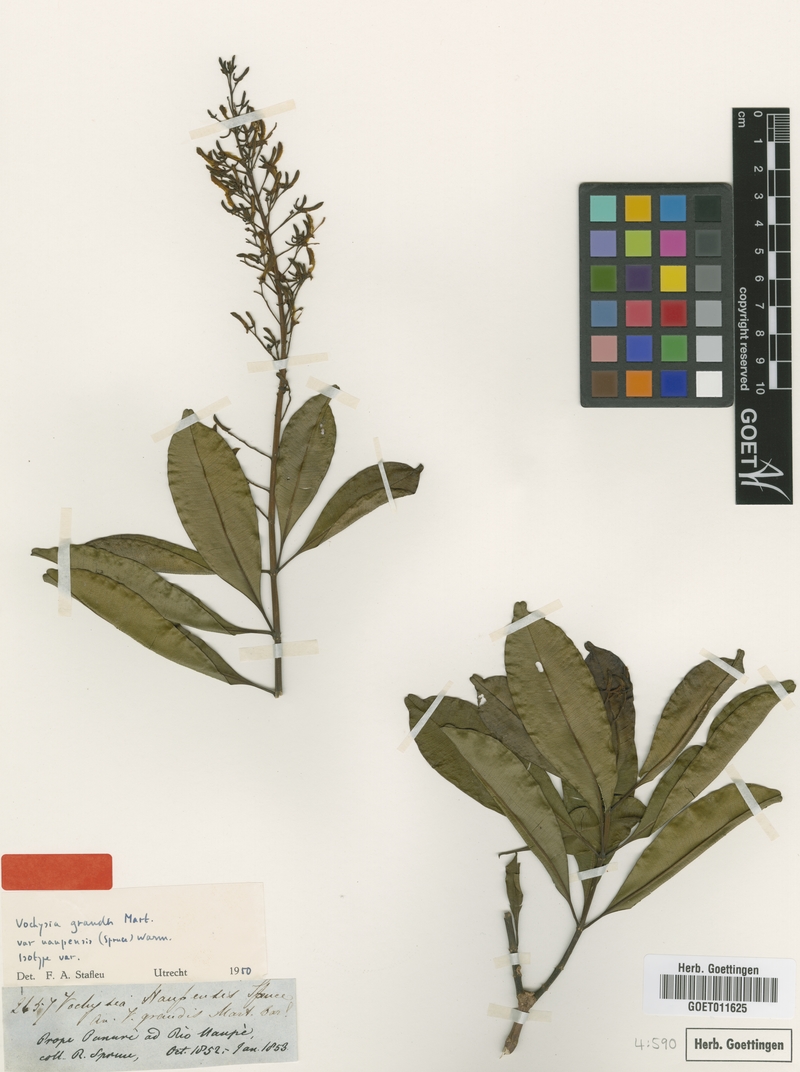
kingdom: Plantae
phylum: Tracheophyta
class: Magnoliopsida
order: Myrtales
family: Vochysiaceae
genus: Vochysia
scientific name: Vochysia grandis
